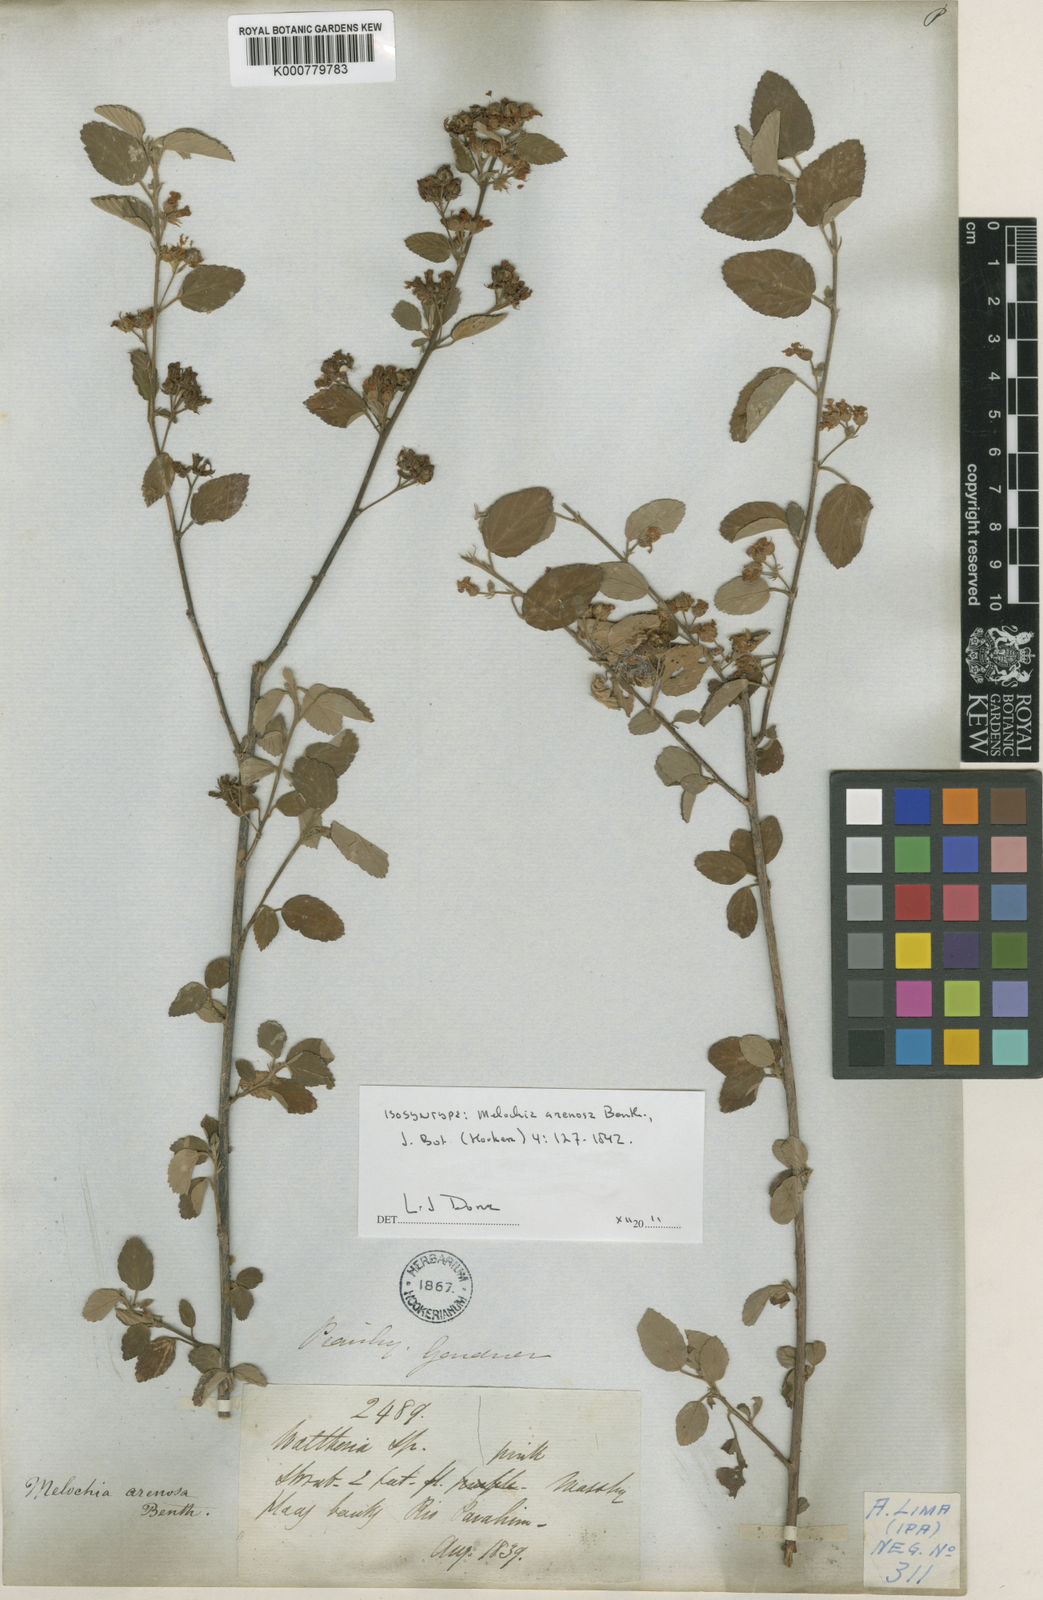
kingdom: Plantae
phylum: Tracheophyta
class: Magnoliopsida
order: Malvales
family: Malvaceae
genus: Melochia
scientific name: Melochia arenosa
